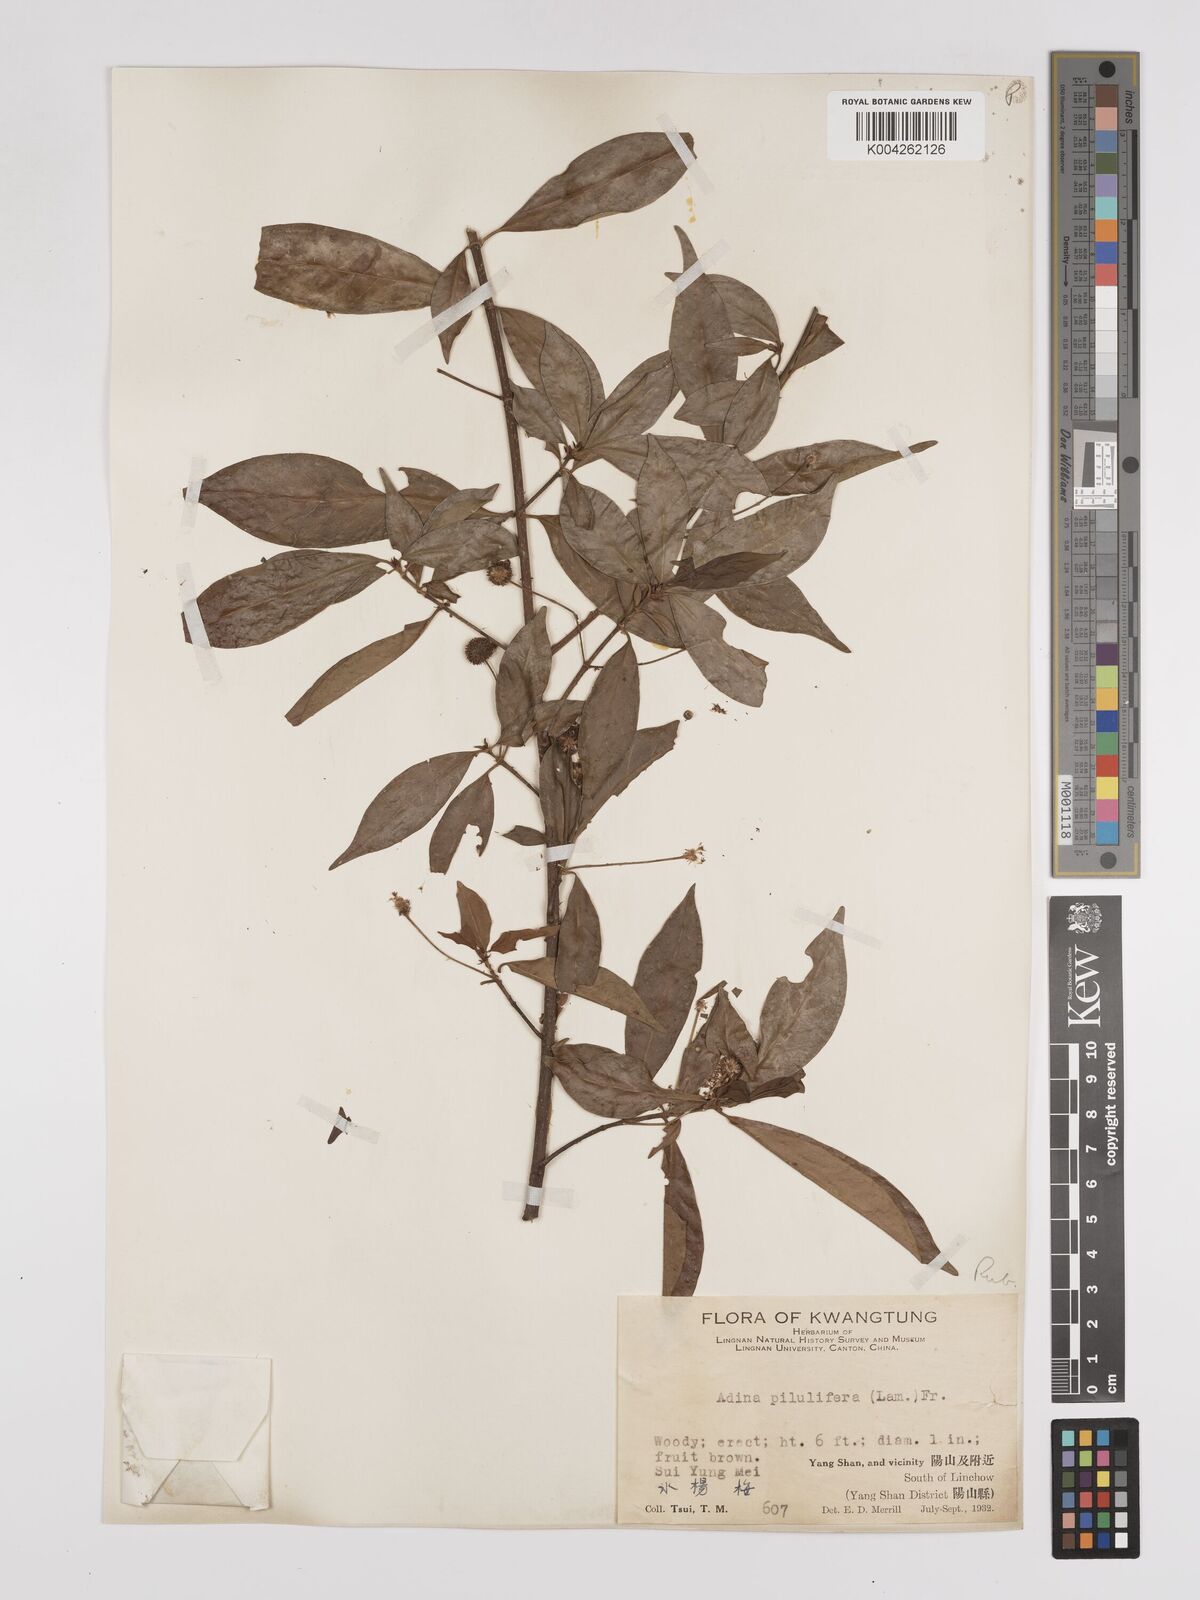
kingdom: Plantae
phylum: Tracheophyta
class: Magnoliopsida
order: Gentianales
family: Rubiaceae
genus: Adina
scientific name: Adina pilulifera
